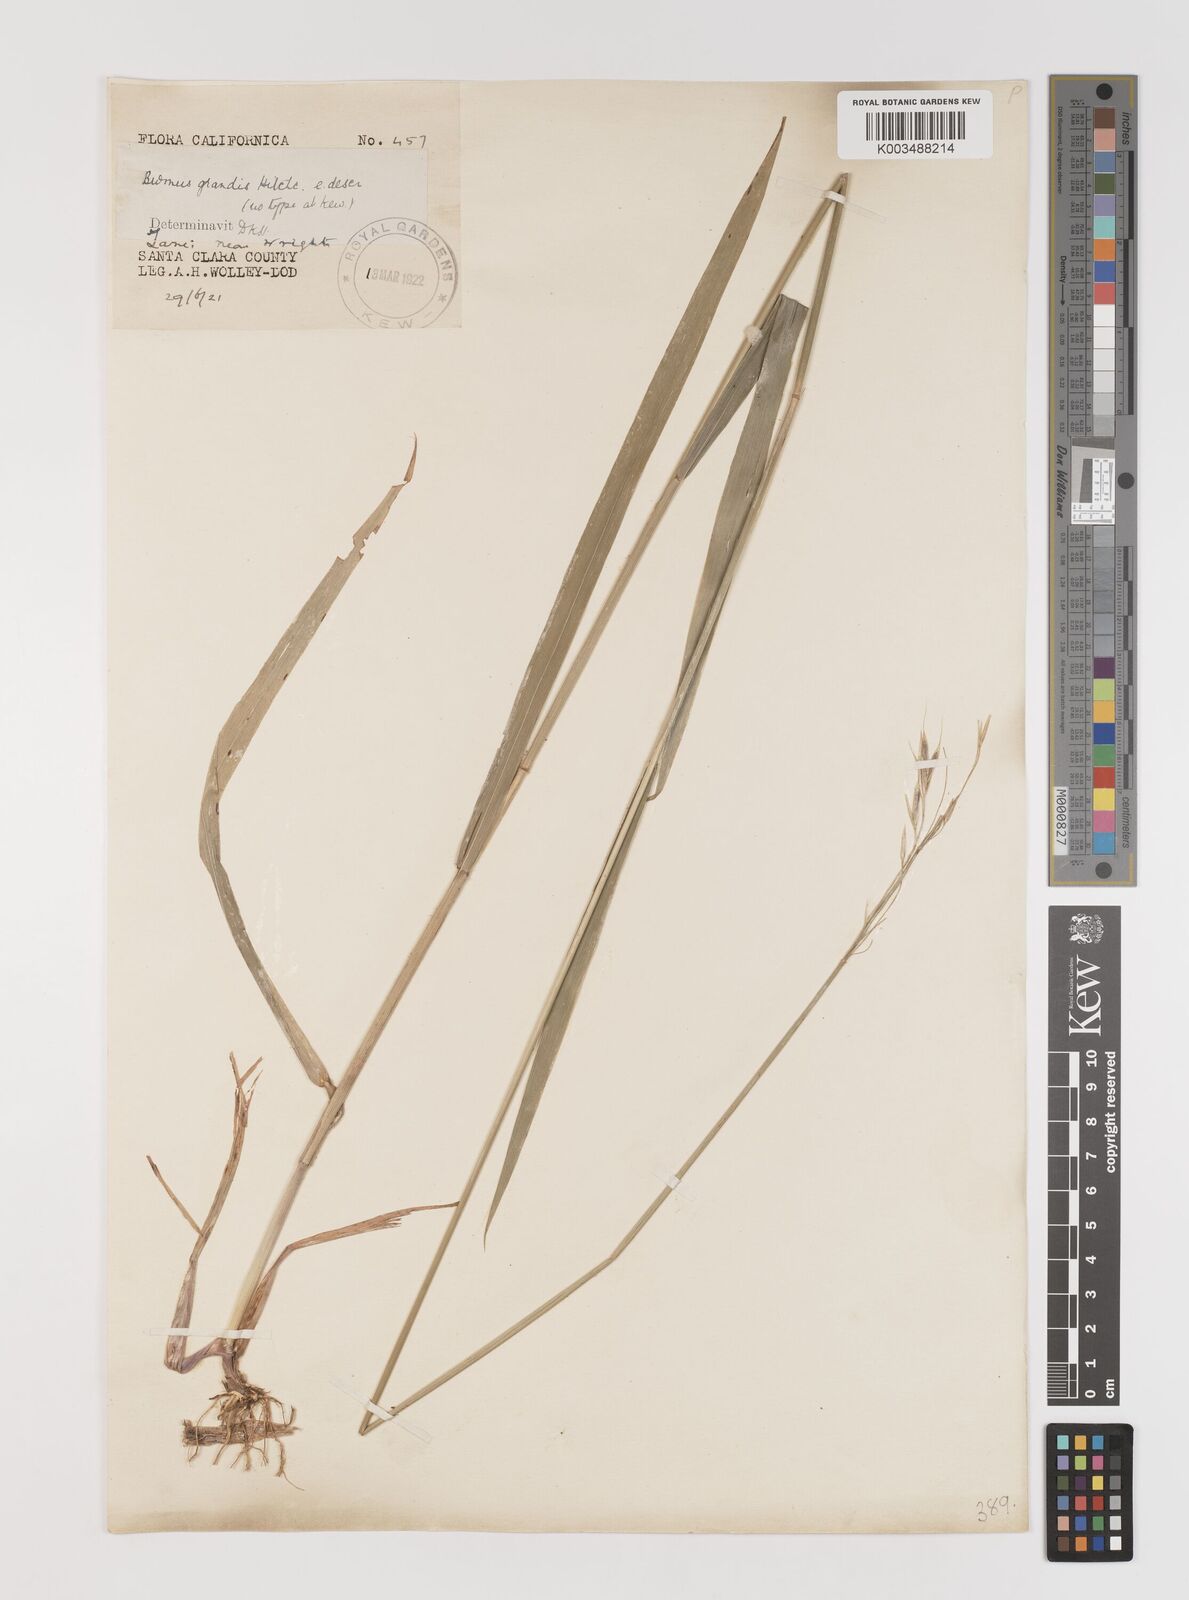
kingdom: Plantae
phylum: Tracheophyta
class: Liliopsida
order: Poales
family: Poaceae
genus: Bromus
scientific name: Bromus grandis
